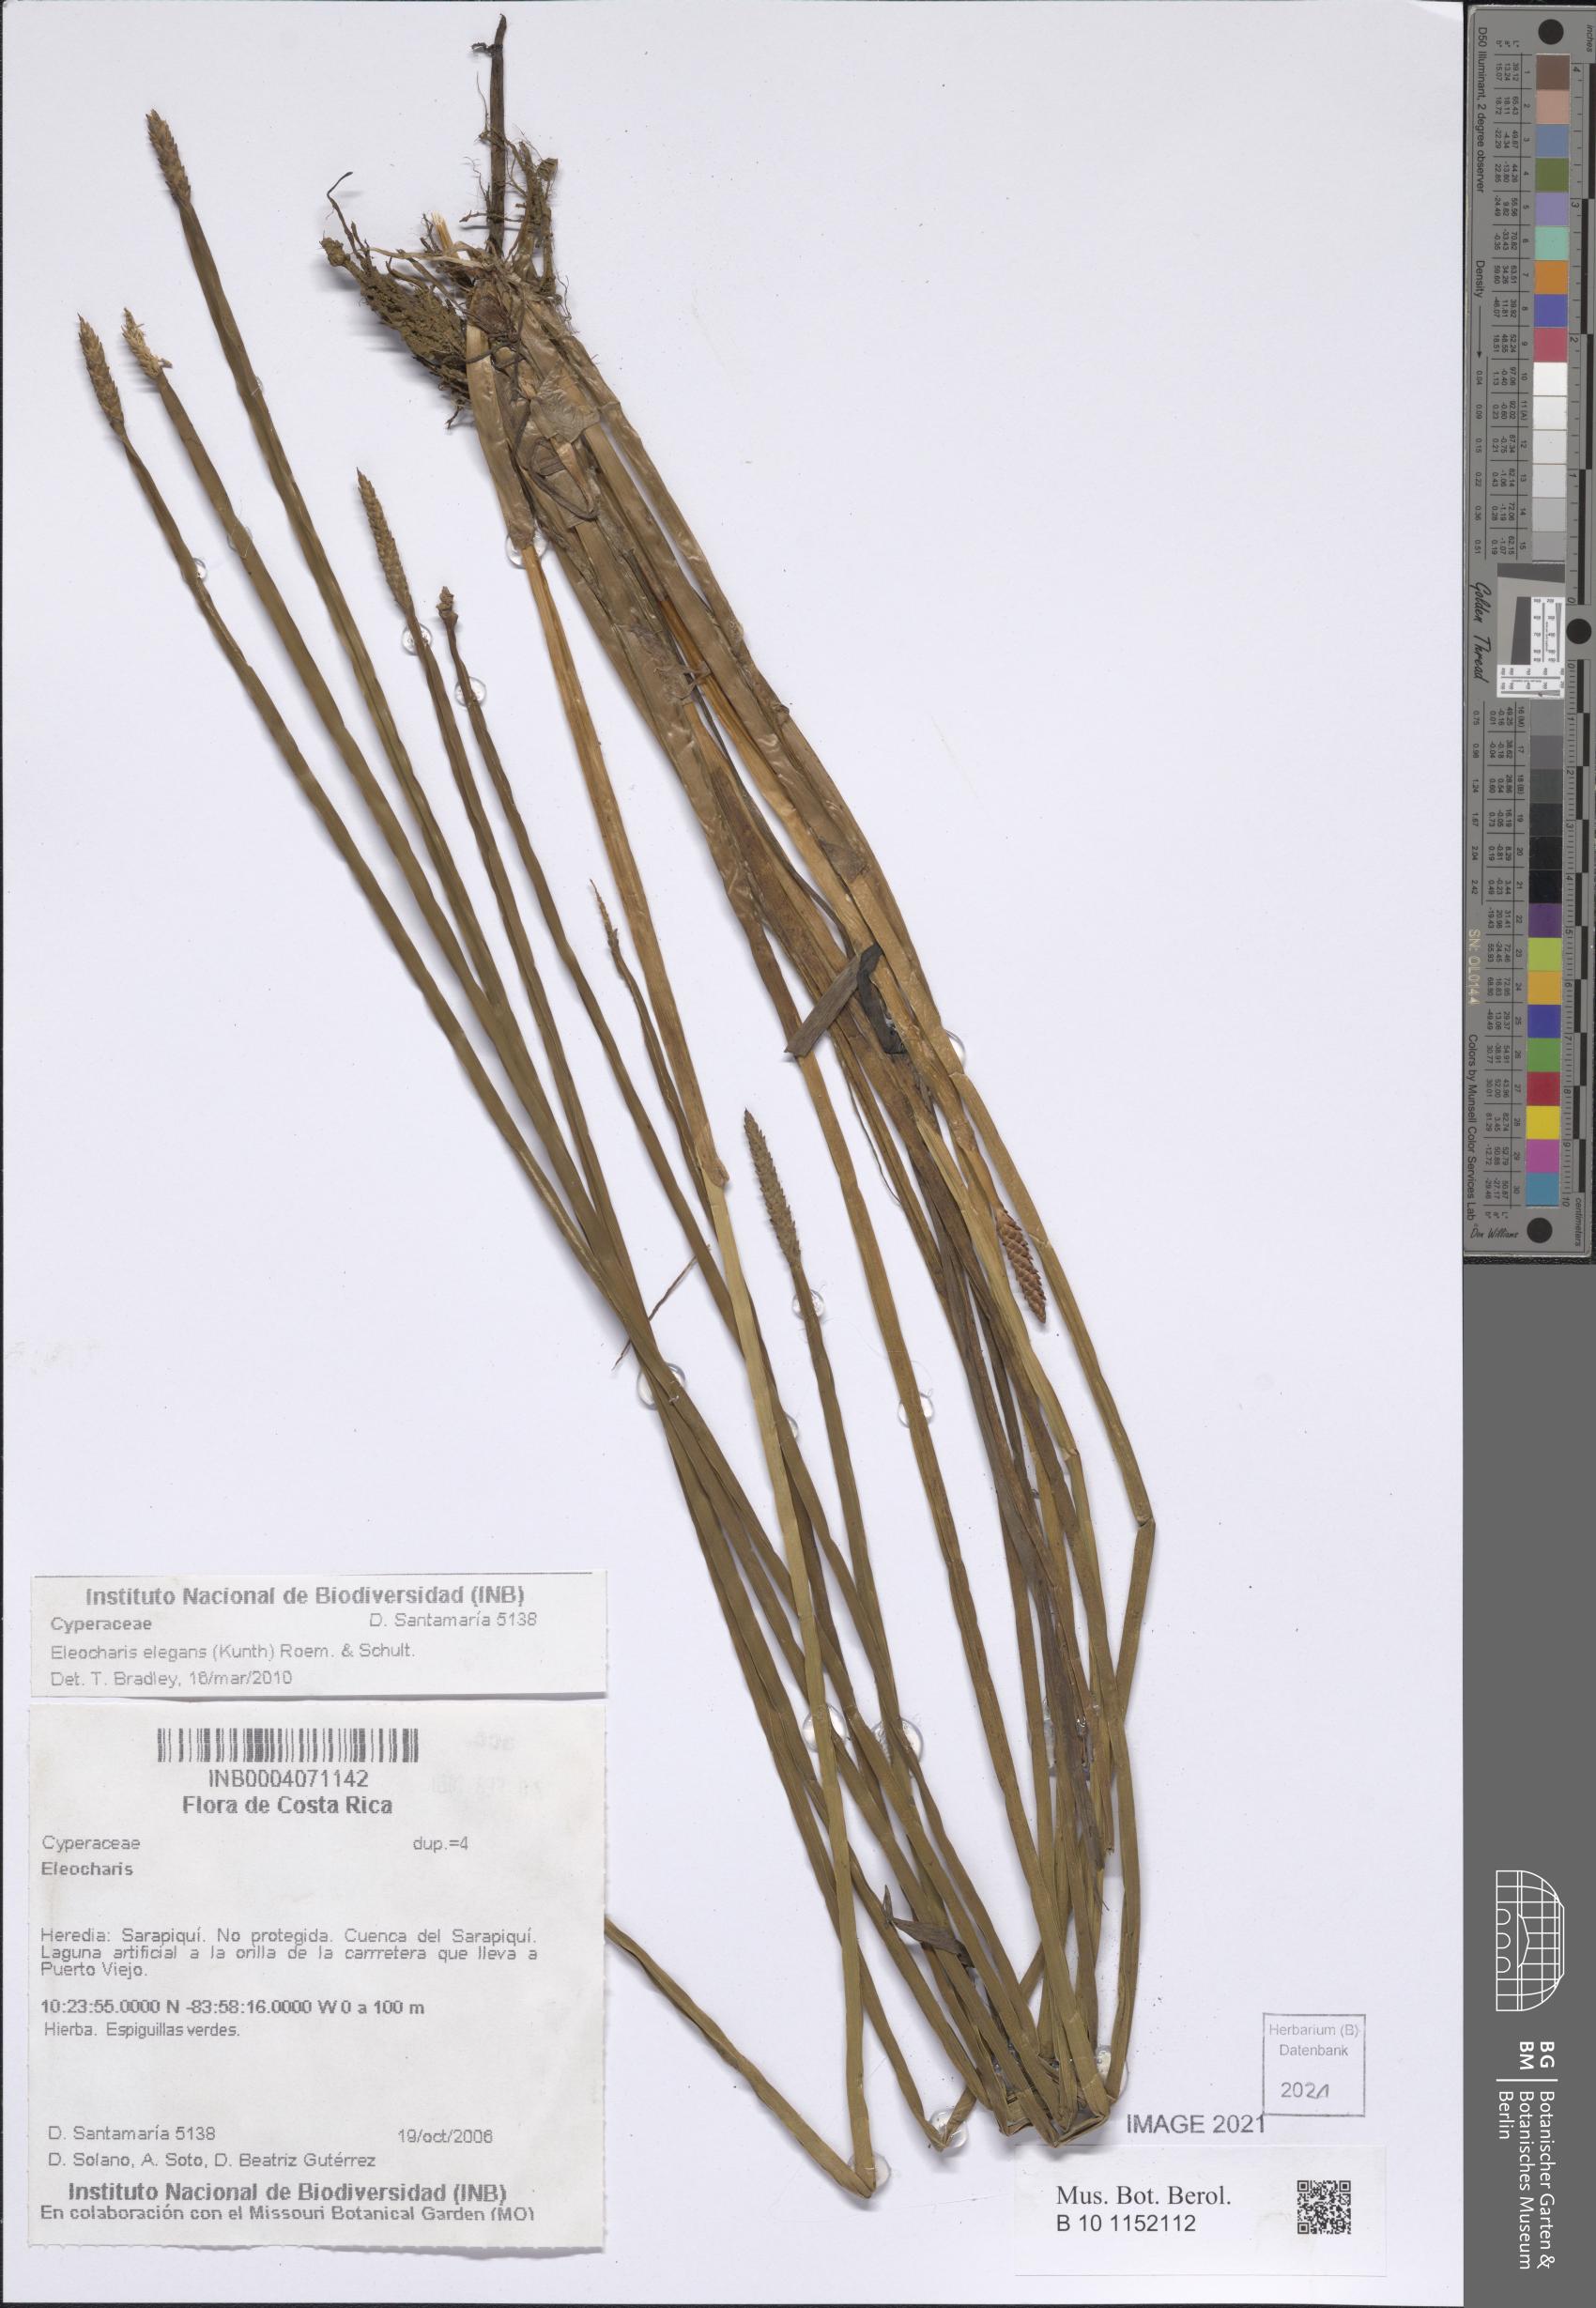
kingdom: Plantae
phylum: Tracheophyta
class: Liliopsida
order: Poales
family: Cyperaceae
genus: Eleocharis
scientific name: Eleocharis elegans
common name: Elegant spike-rush
